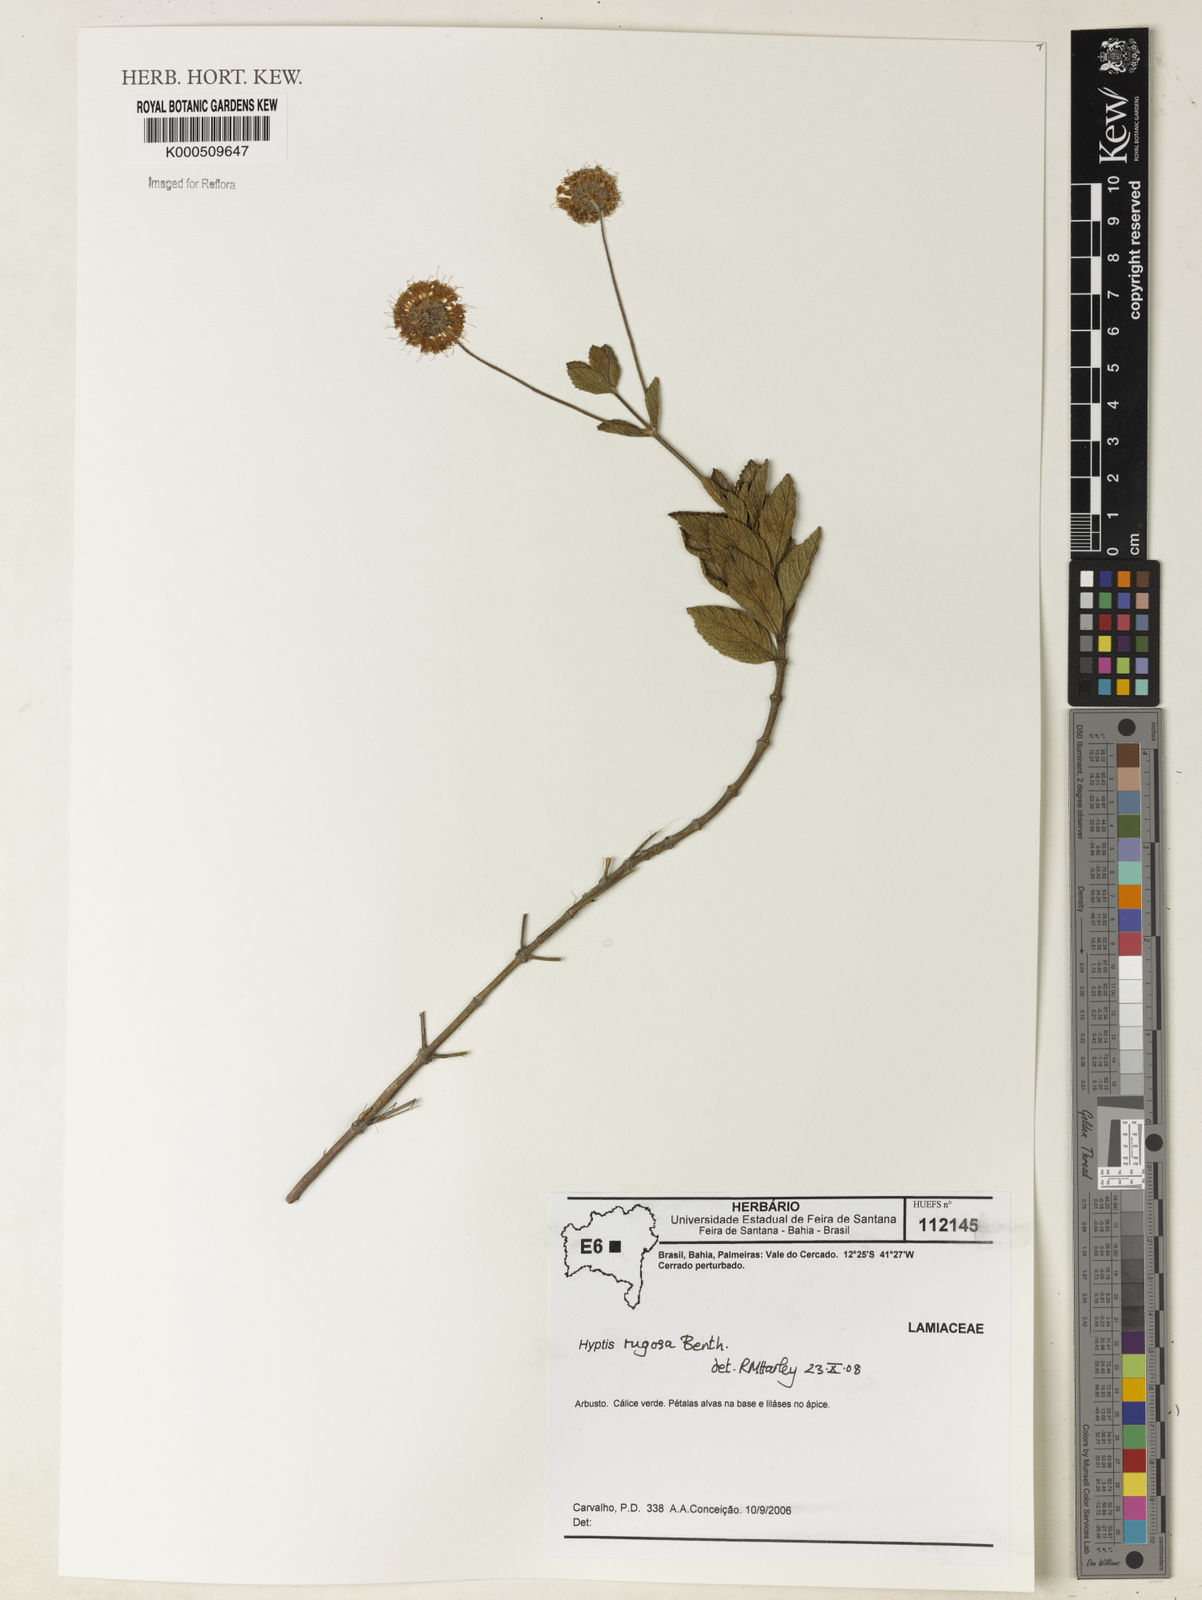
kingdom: Plantae
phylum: Tracheophyta
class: Magnoliopsida
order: Lamiales
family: Lamiaceae
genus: Cyanocephalus
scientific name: Cyanocephalus rugosus
